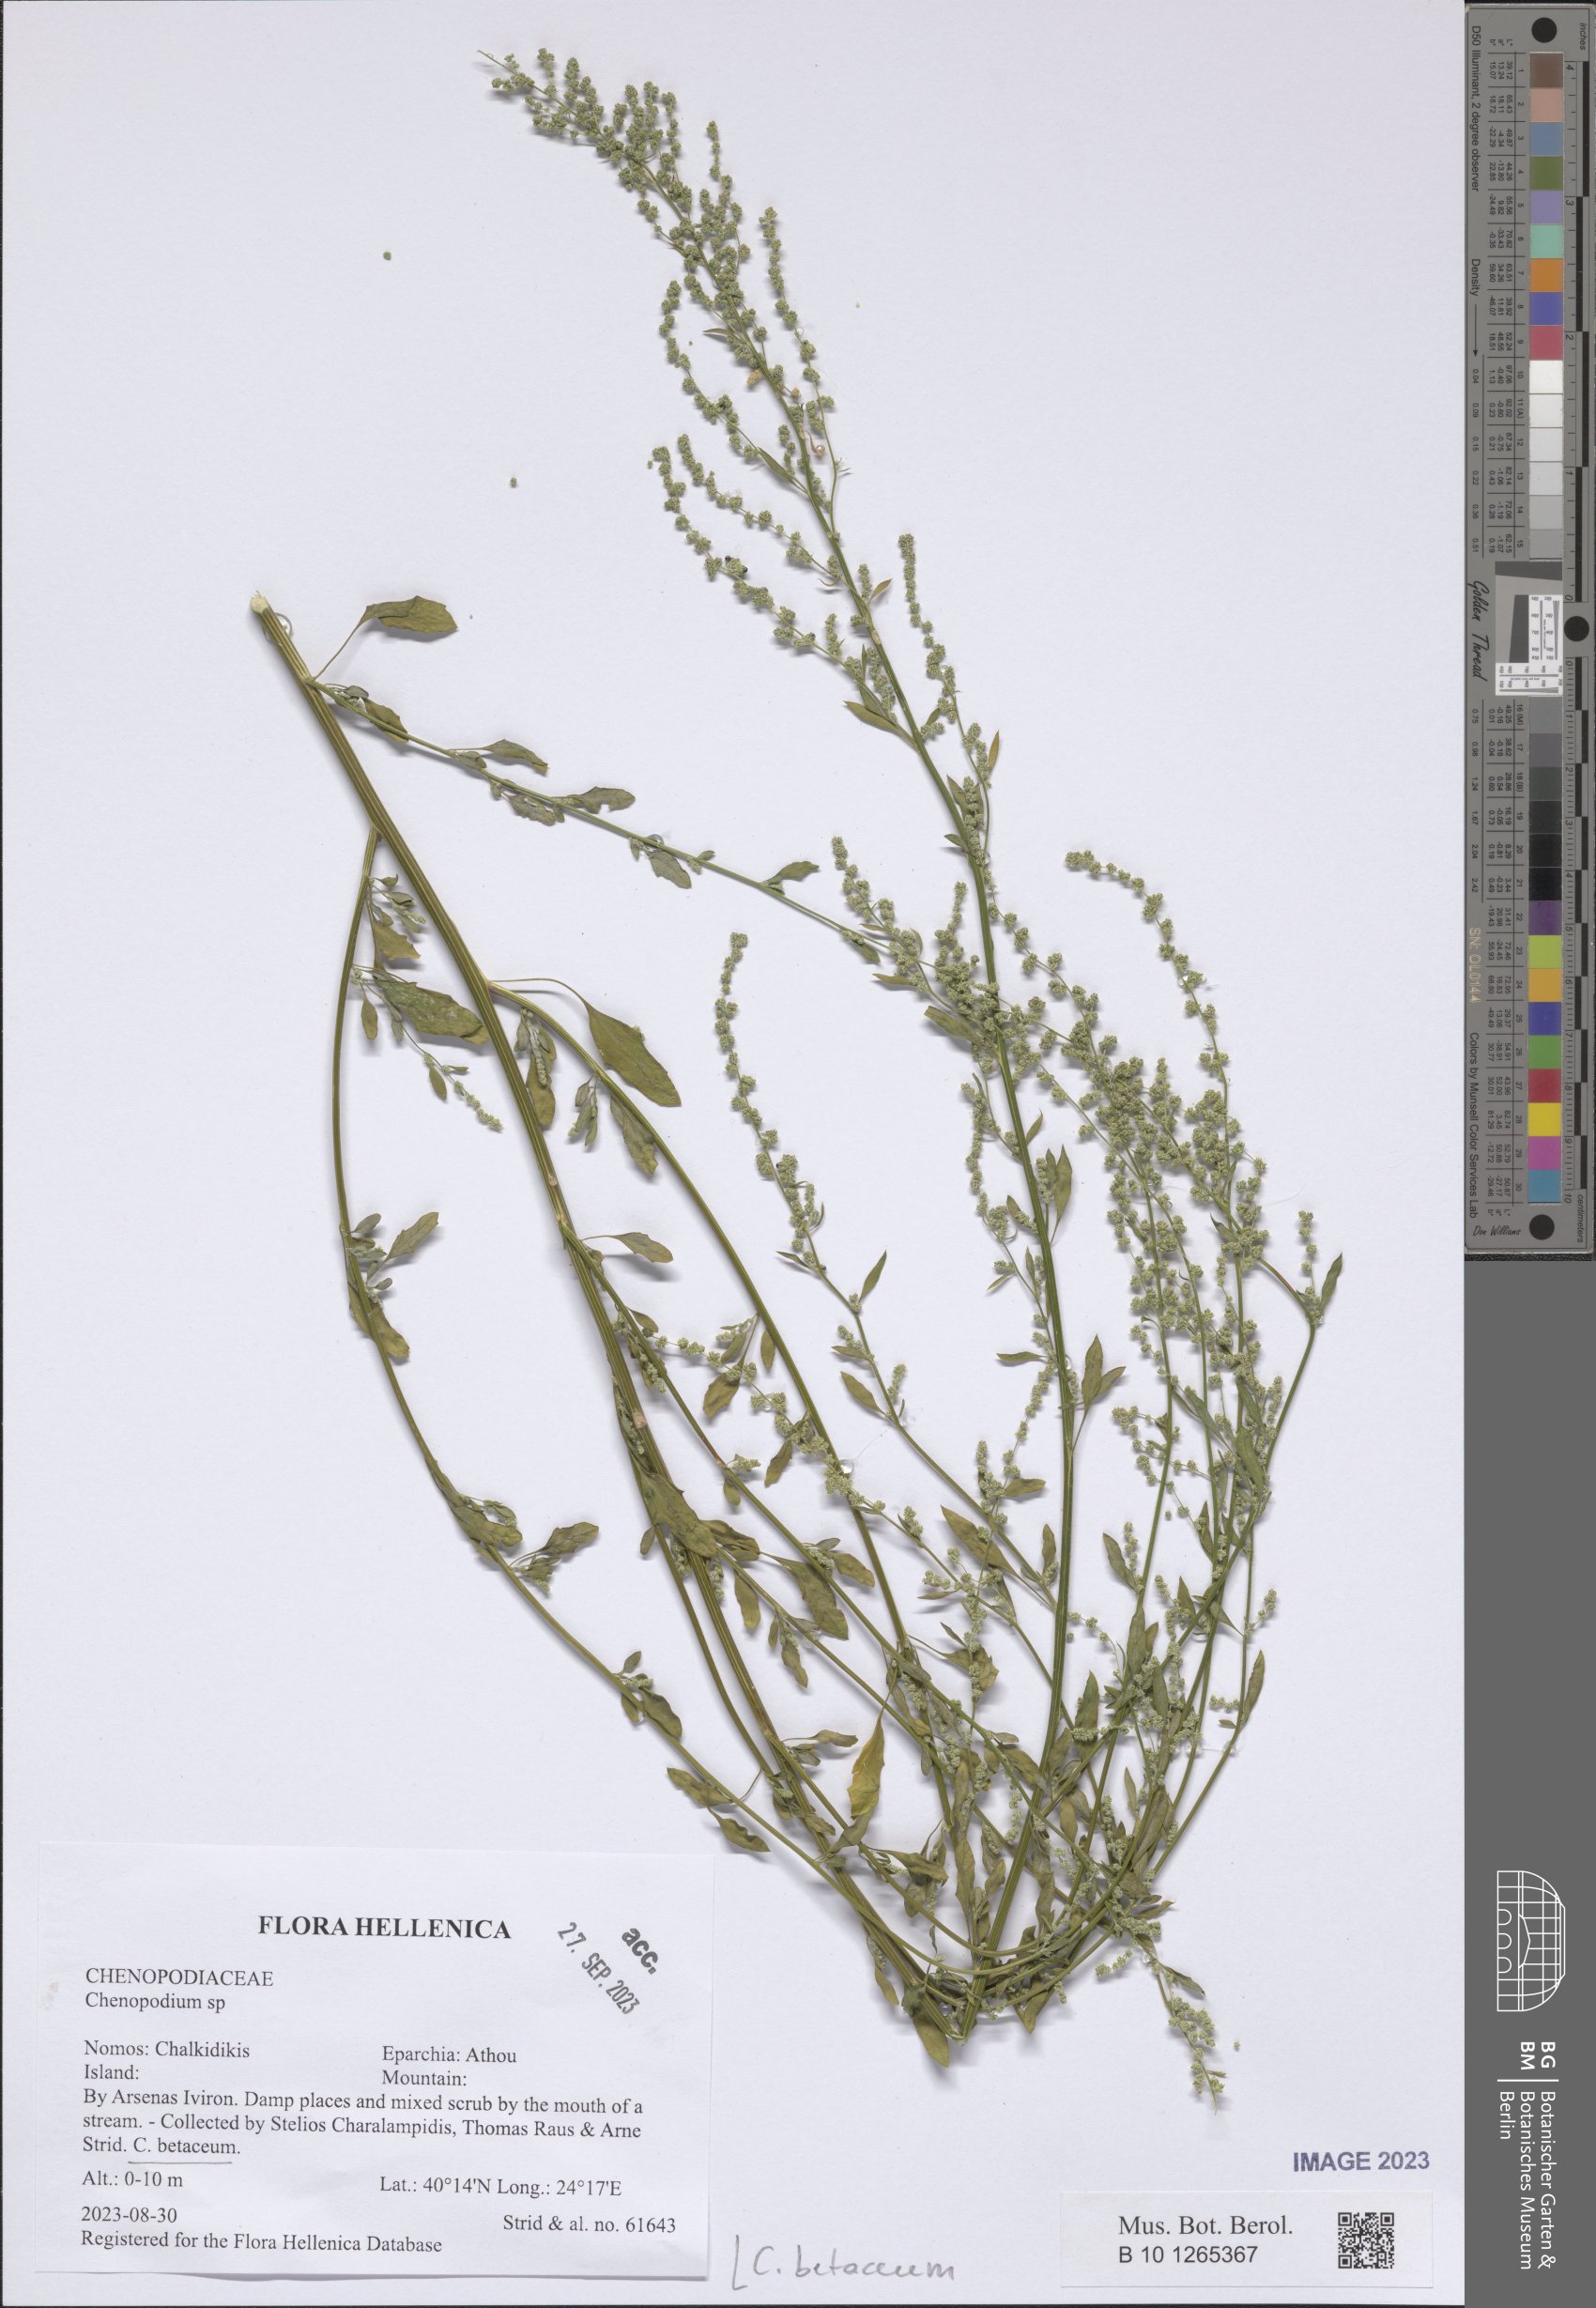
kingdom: Plantae
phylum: Tracheophyta
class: Magnoliopsida
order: Caryophyllales
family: Amaranthaceae
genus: Chenopodium
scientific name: Chenopodium betaceum
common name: Striped goosefoot
